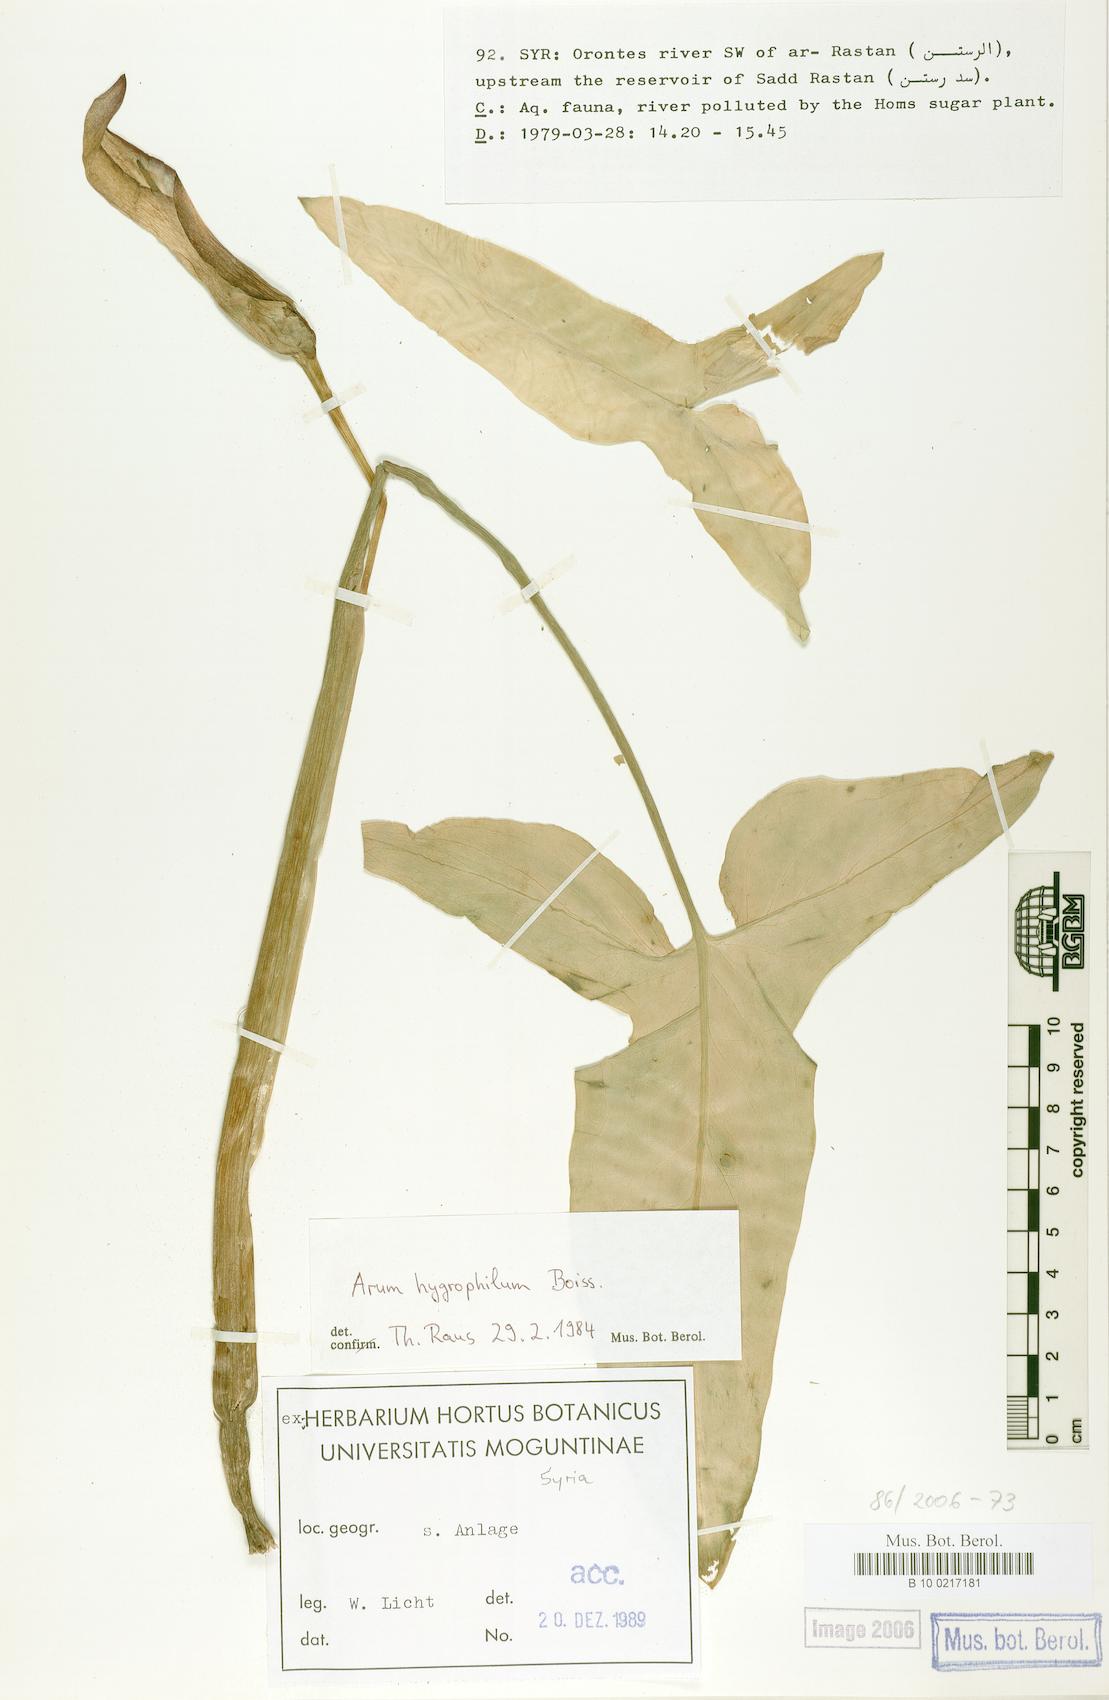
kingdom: Plantae
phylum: Tracheophyta
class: Liliopsida
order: Alismatales
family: Araceae
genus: Arum
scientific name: Arum hygrophilum
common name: Water arum
